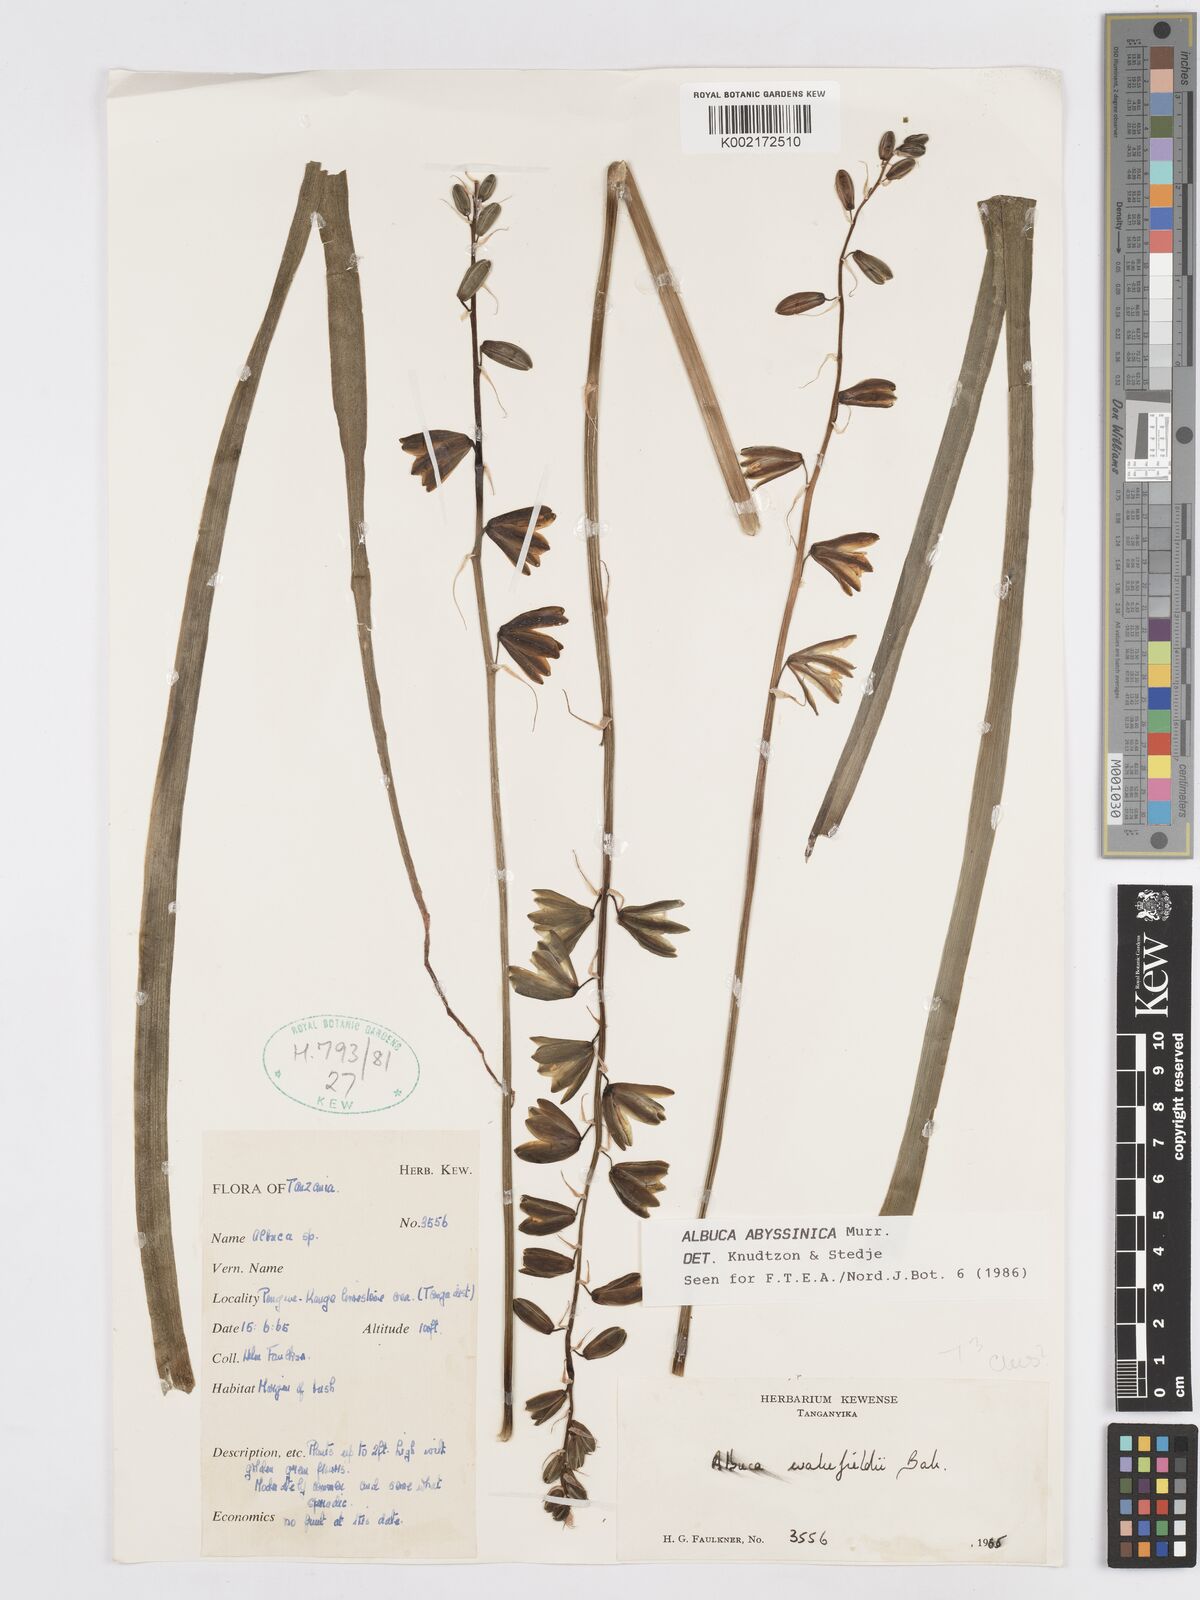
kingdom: Plantae
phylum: Tracheophyta
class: Liliopsida
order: Asparagales
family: Asparagaceae
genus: Albuca
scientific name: Albuca abyssinica
